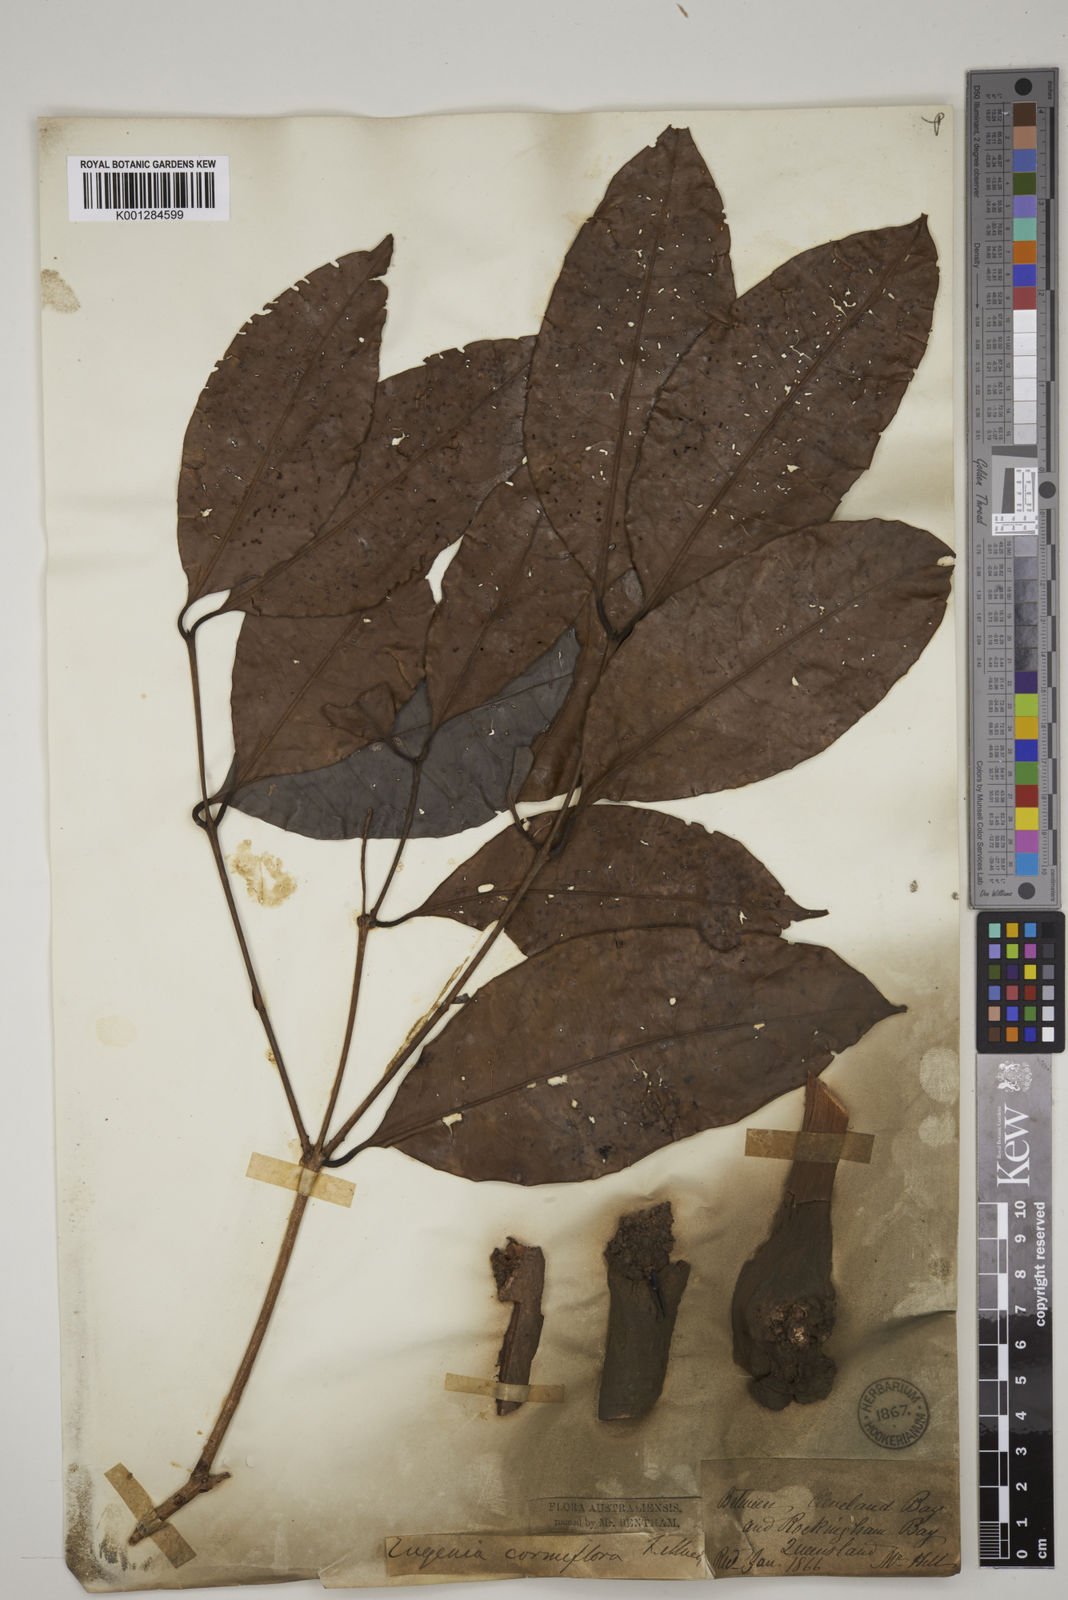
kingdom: Plantae
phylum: Tracheophyta
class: Magnoliopsida
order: Myrtales
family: Myrtaceae
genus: Syzygium
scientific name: Syzygium cormiflorum
